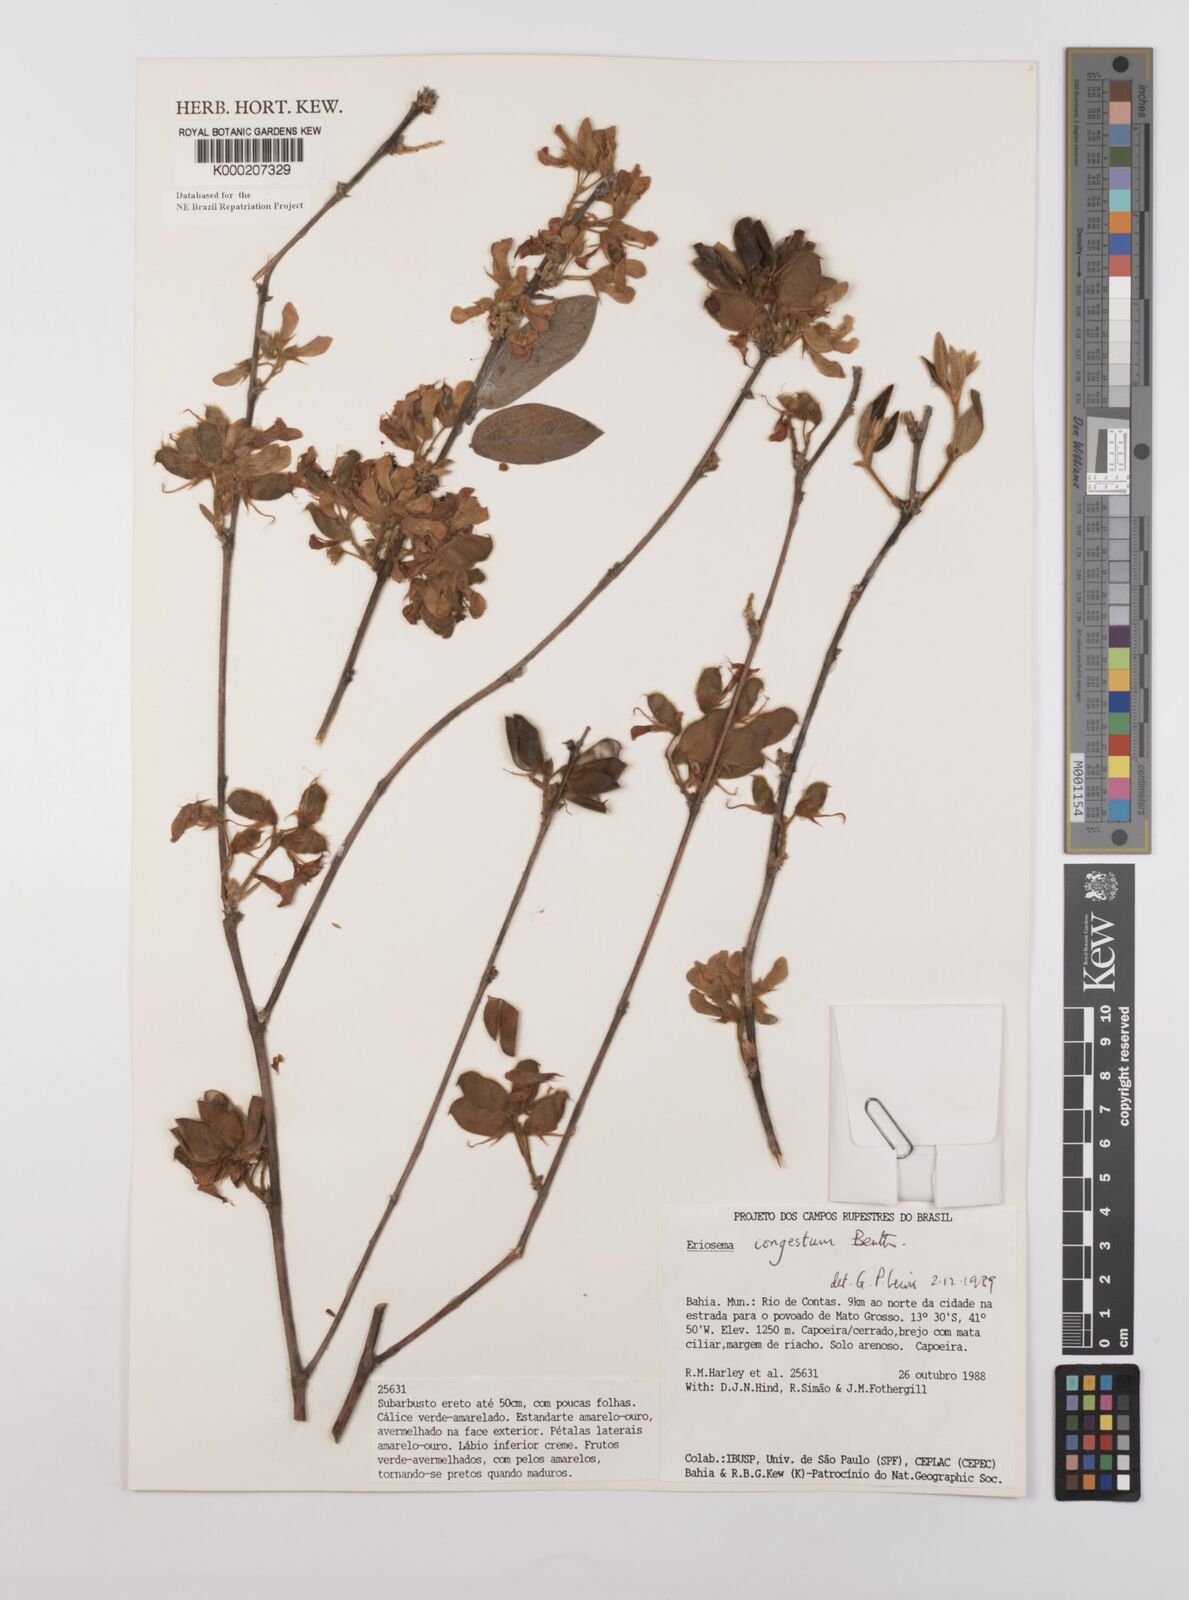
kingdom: Plantae
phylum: Tracheophyta
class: Magnoliopsida
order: Fabales
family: Fabaceae
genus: Eriosema
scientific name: Eriosema congestum
